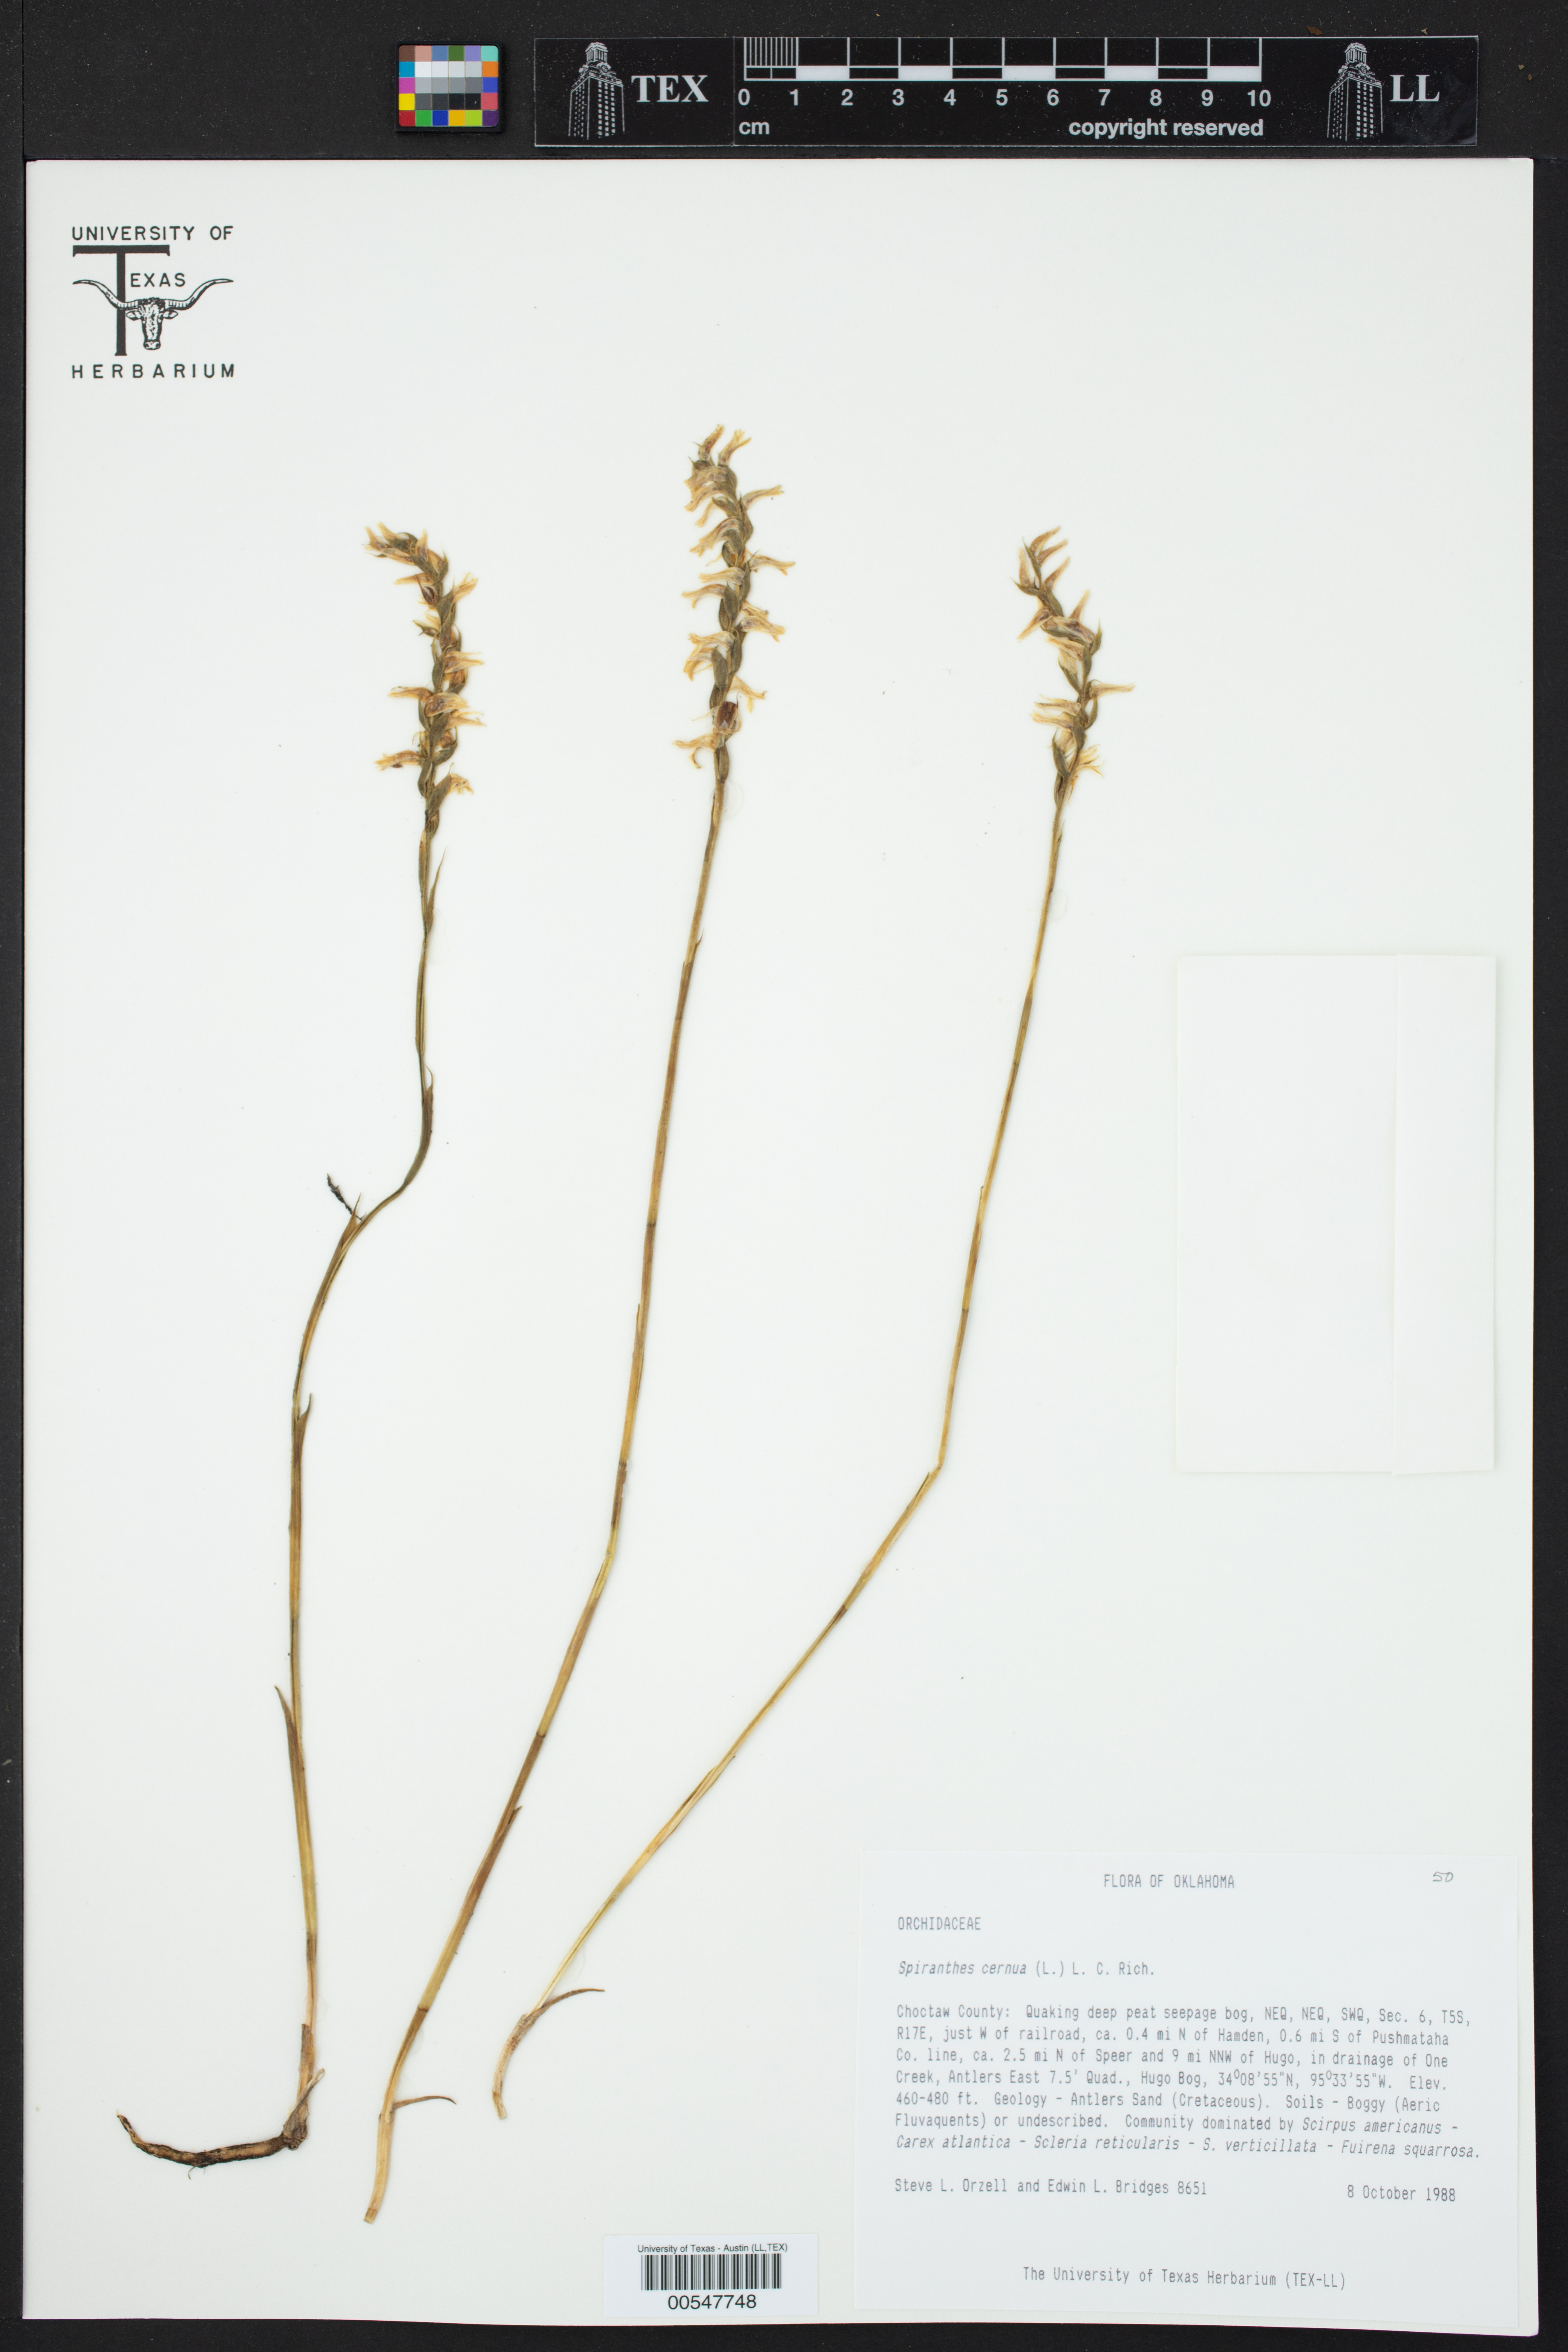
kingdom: Plantae
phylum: Tracheophyta
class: Liliopsida
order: Asparagales
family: Orchidaceae
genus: Spiranthes
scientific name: Spiranthes cernua
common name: Dropping ladies'-tresses
